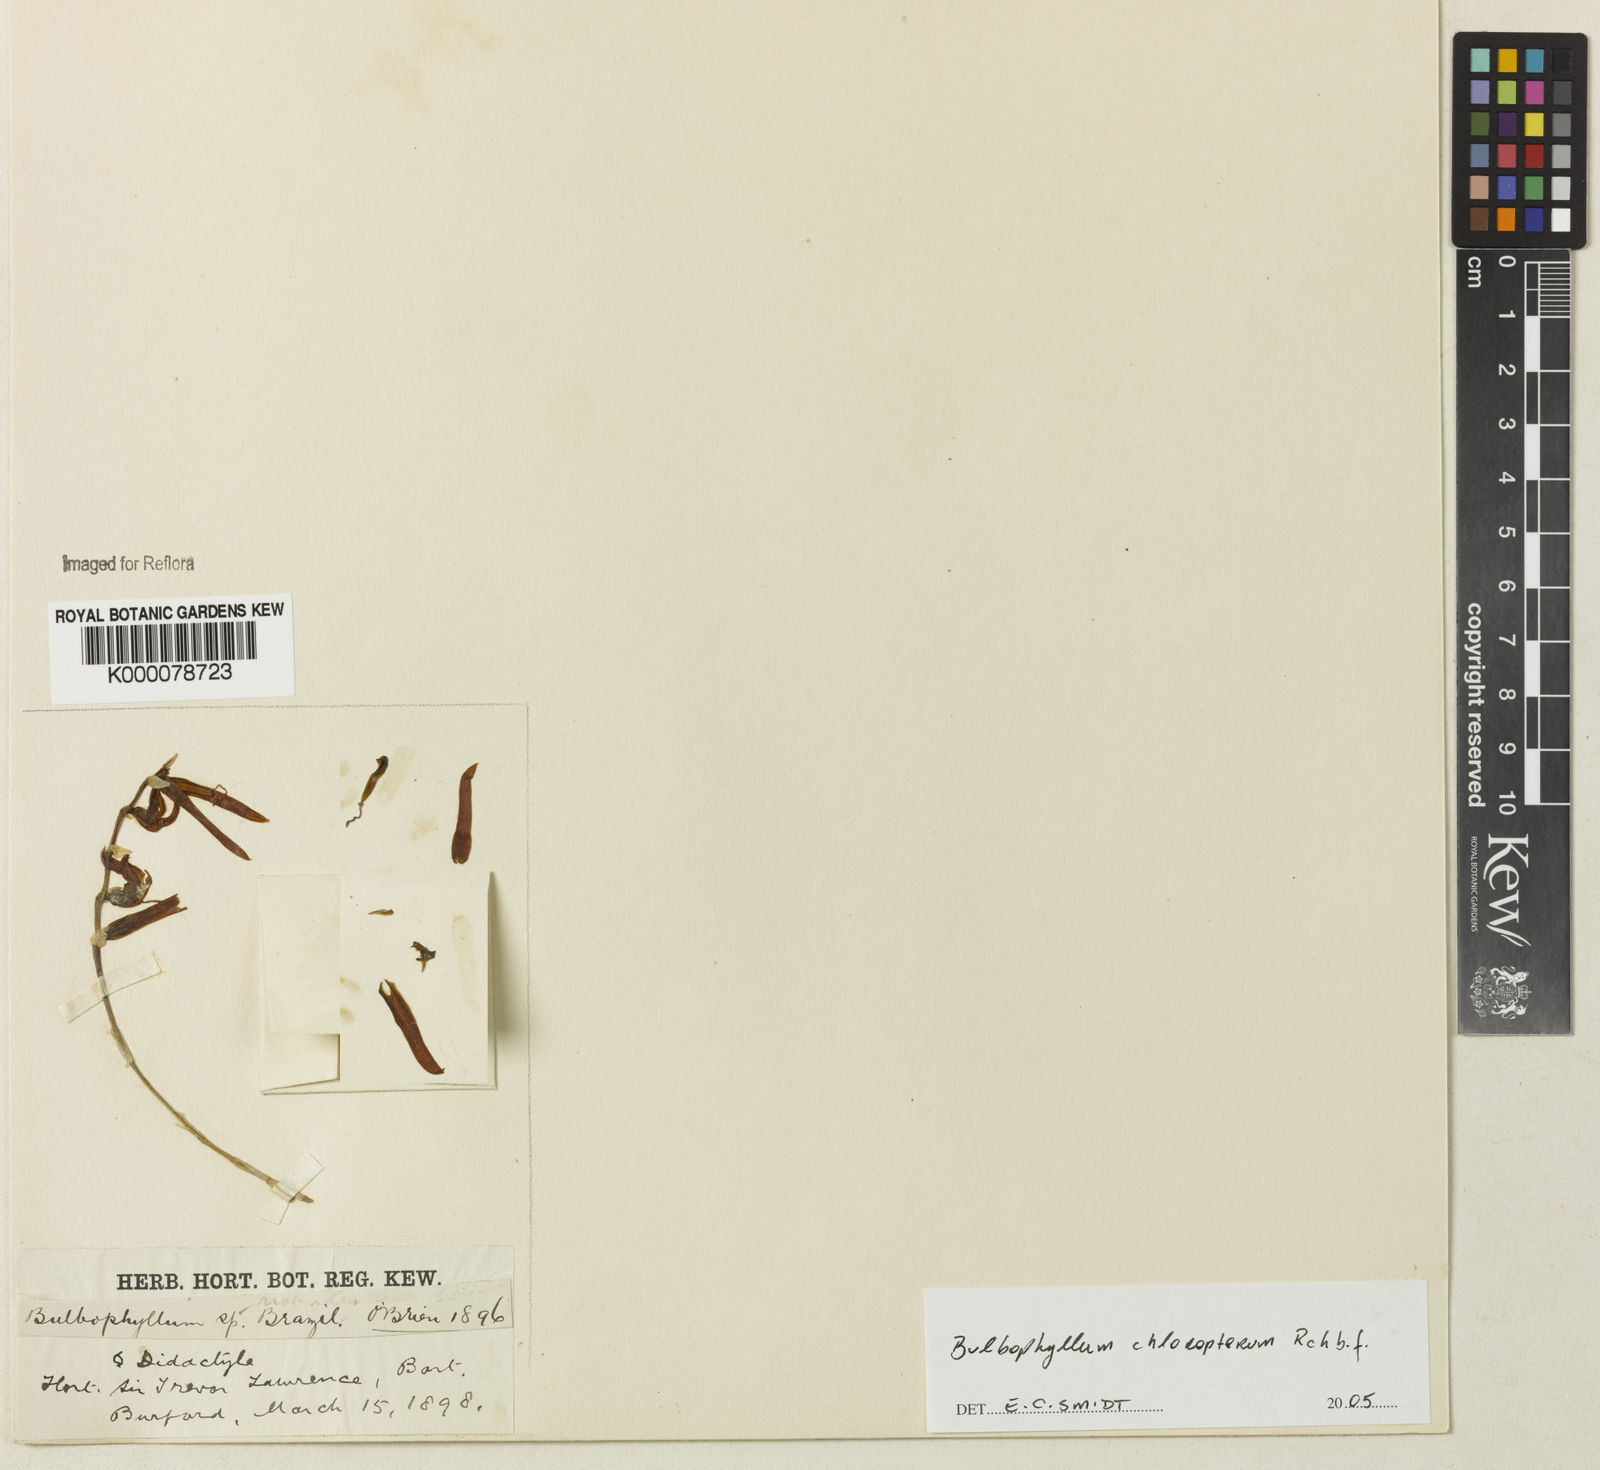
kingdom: Plantae
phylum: Tracheophyta
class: Liliopsida
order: Asparagales
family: Orchidaceae
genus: Bulbophyllum
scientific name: Bulbophyllum
